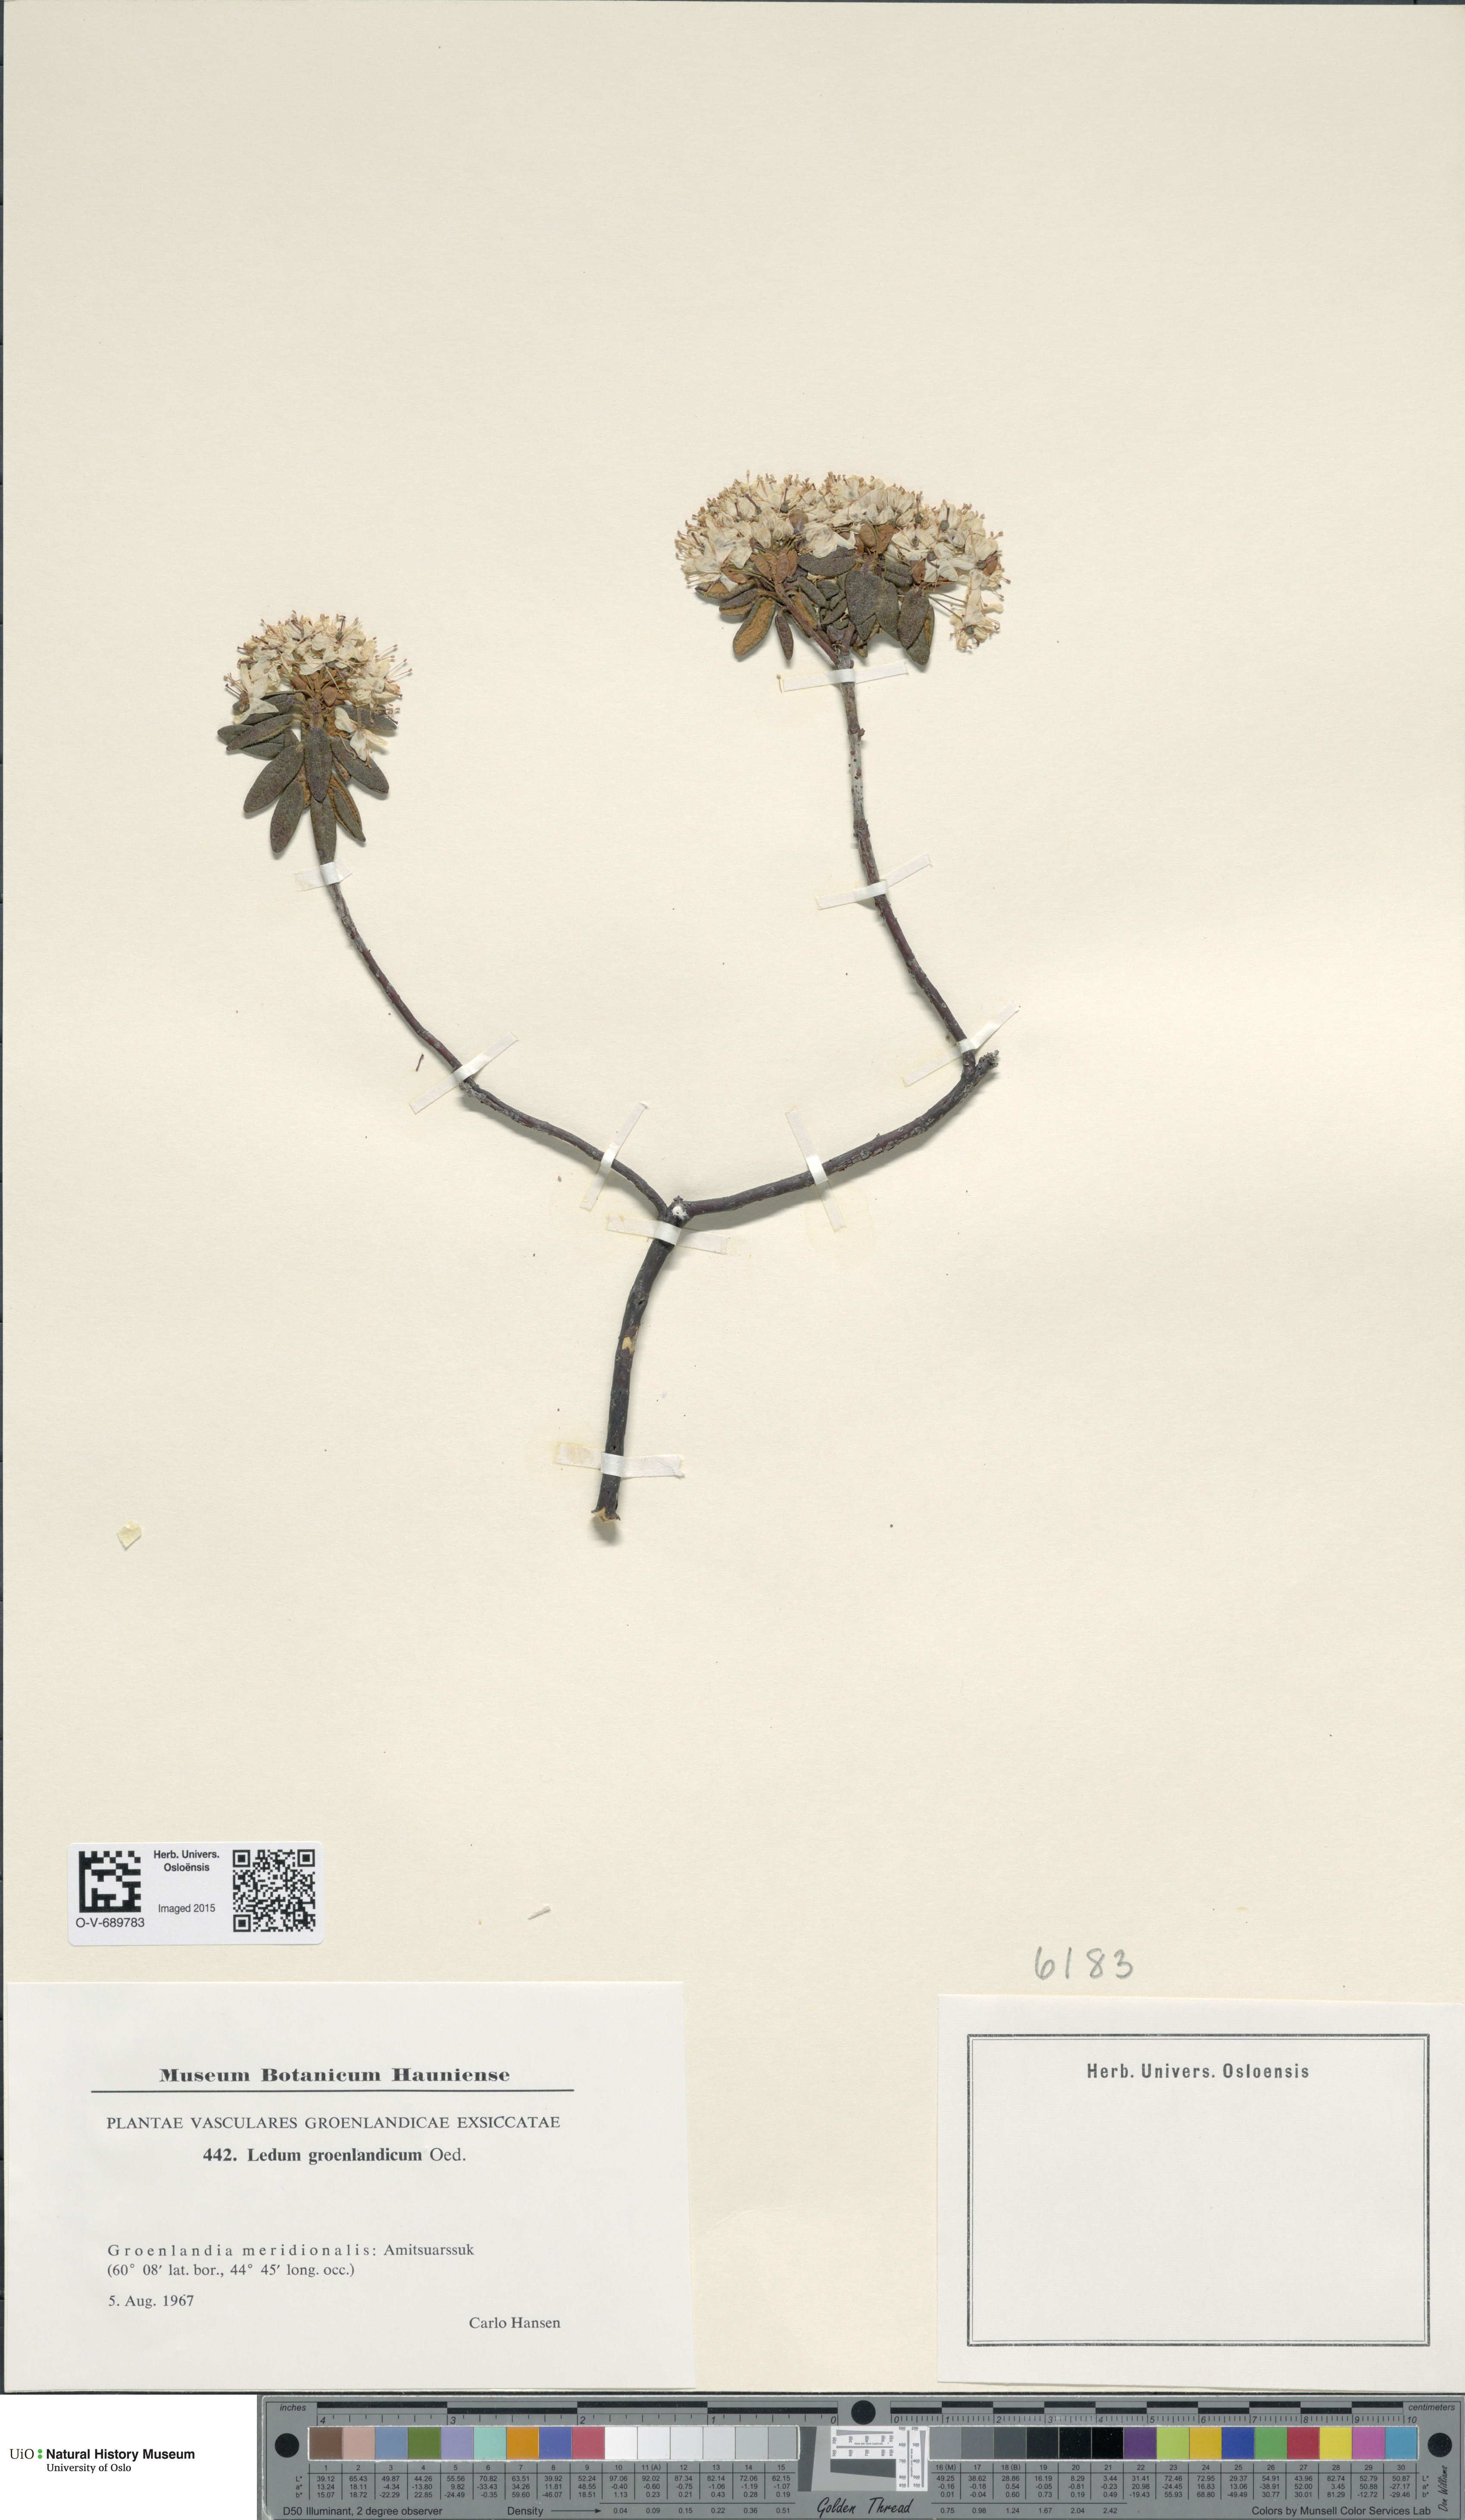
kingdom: Plantae
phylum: Tracheophyta
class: Magnoliopsida
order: Ericales
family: Ericaceae
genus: Rhododendron
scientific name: Rhododendron groenlandicum
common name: Bog labrador tea
